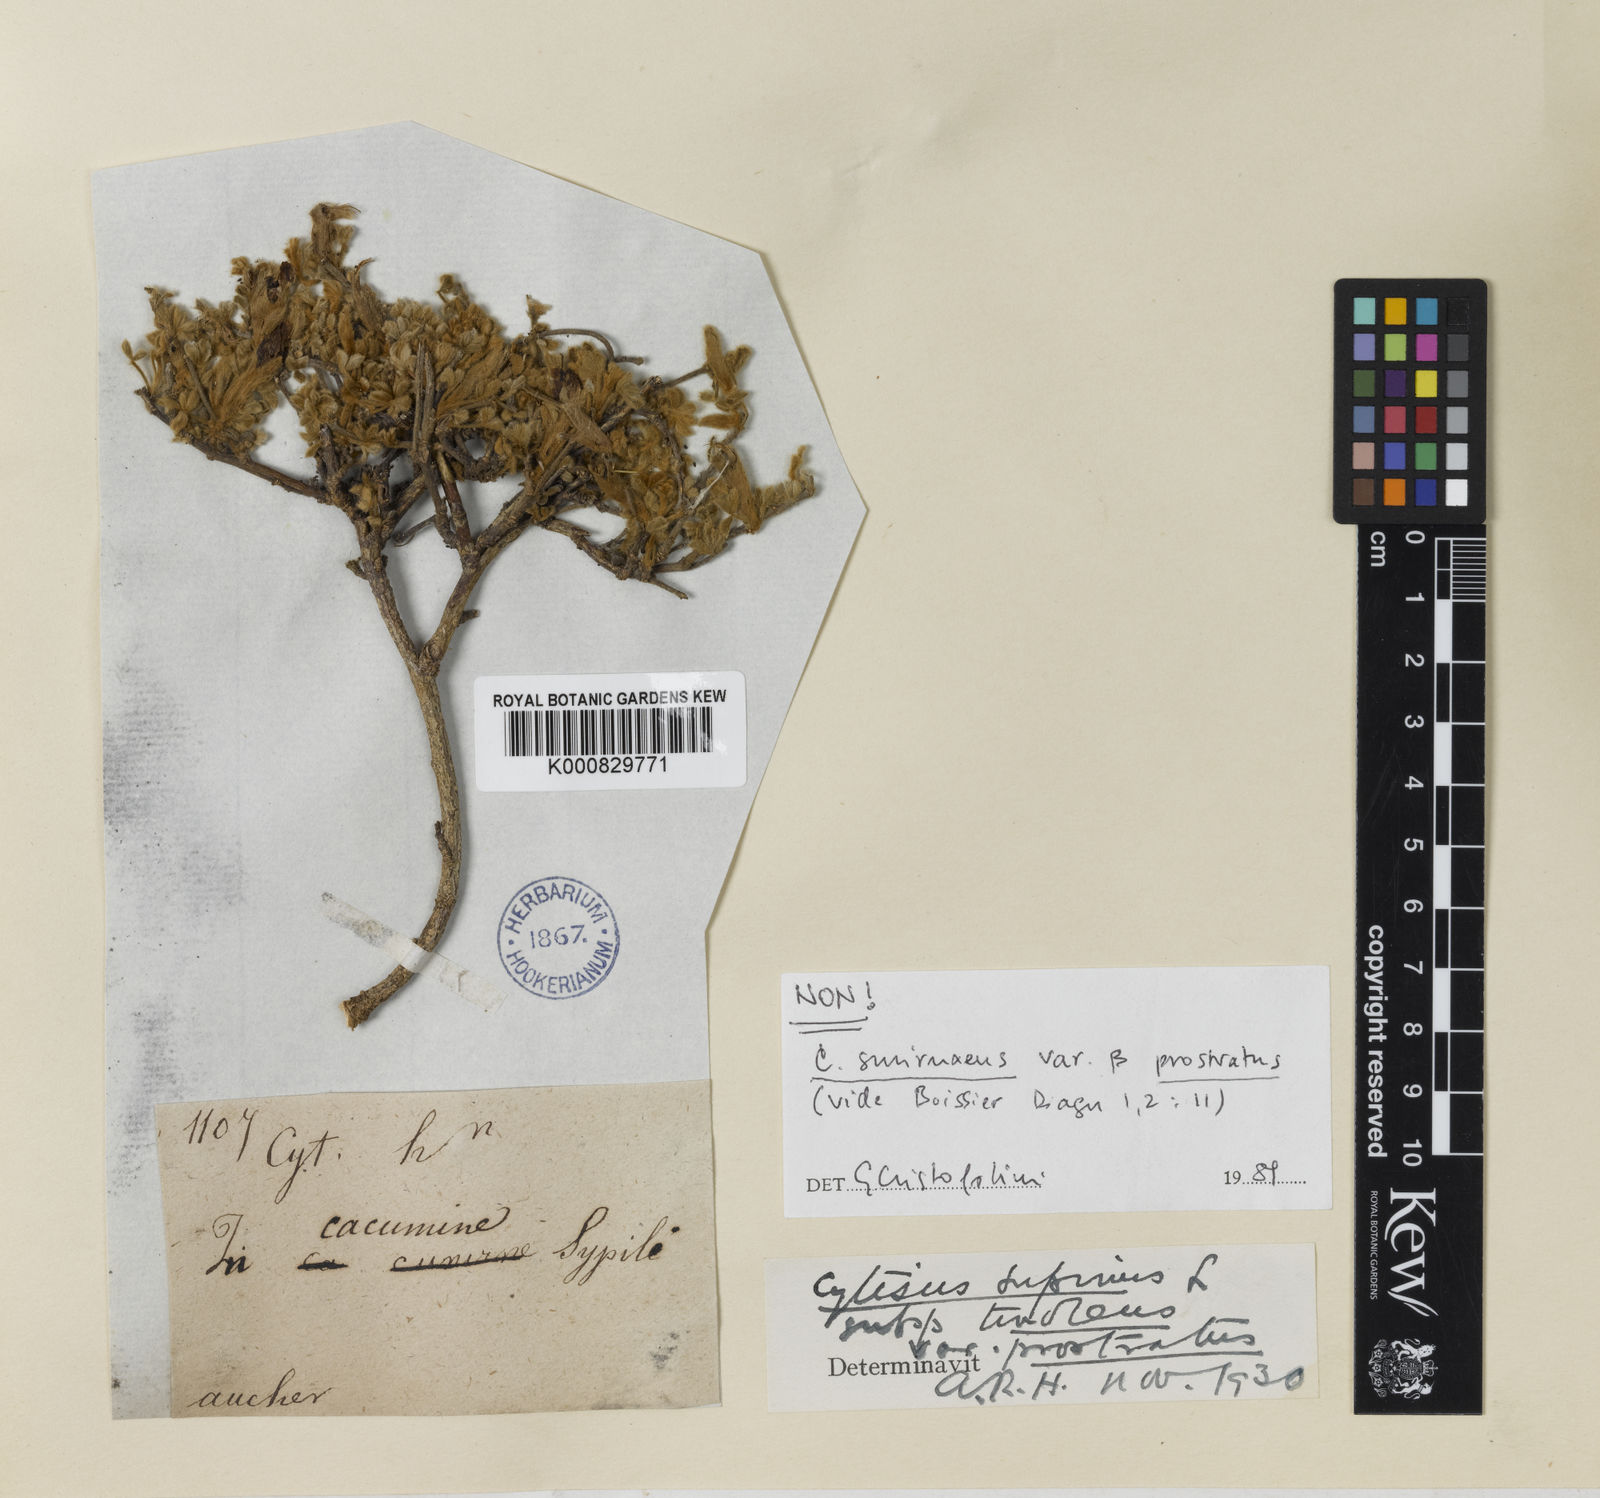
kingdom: Plantae
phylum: Tracheophyta
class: Magnoliopsida
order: Fabales
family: Fabaceae
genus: Chamaecytisus
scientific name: Chamaecytisus eriocarpus
